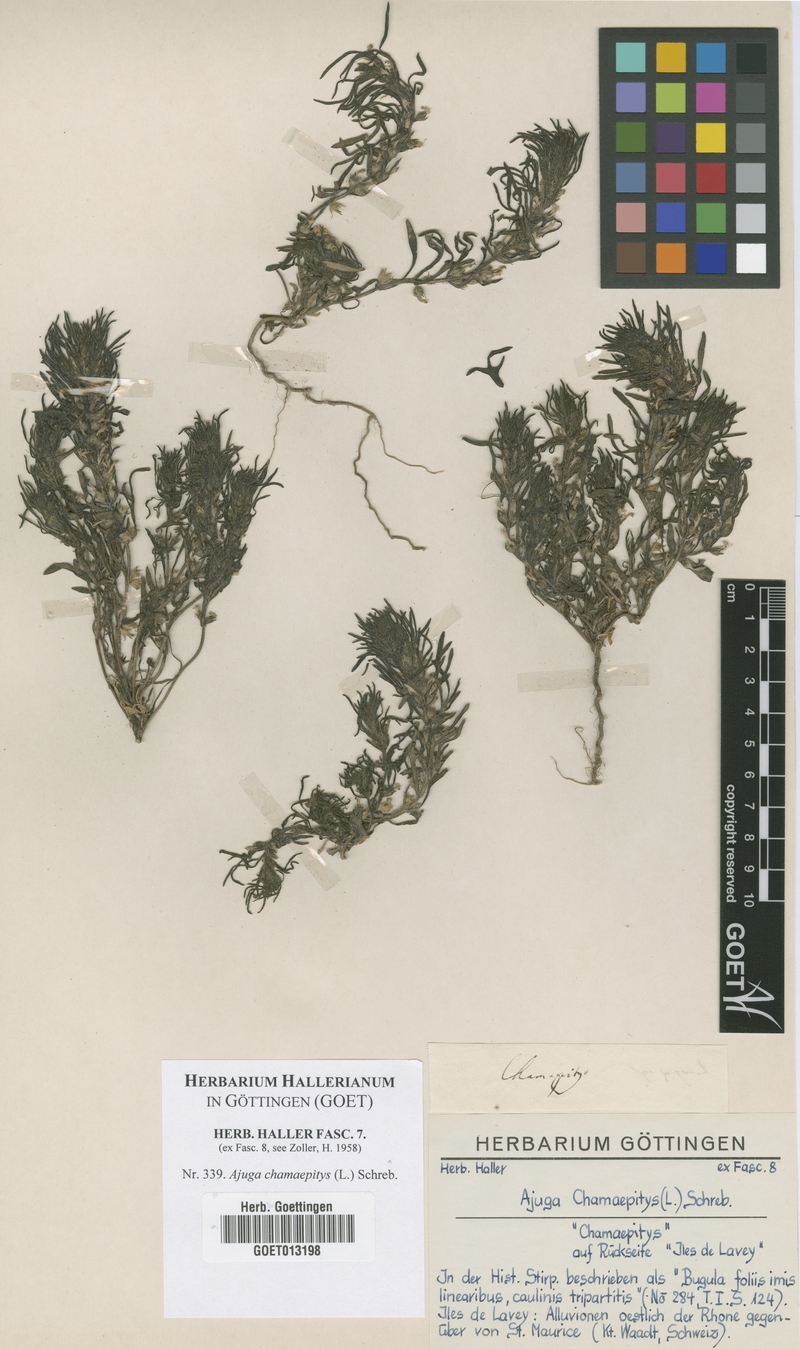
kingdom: Plantae
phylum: Tracheophyta
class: Magnoliopsida
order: Lamiales
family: Lamiaceae
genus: Ajuga
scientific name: Ajuga chamaepitys
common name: Ground-pine
